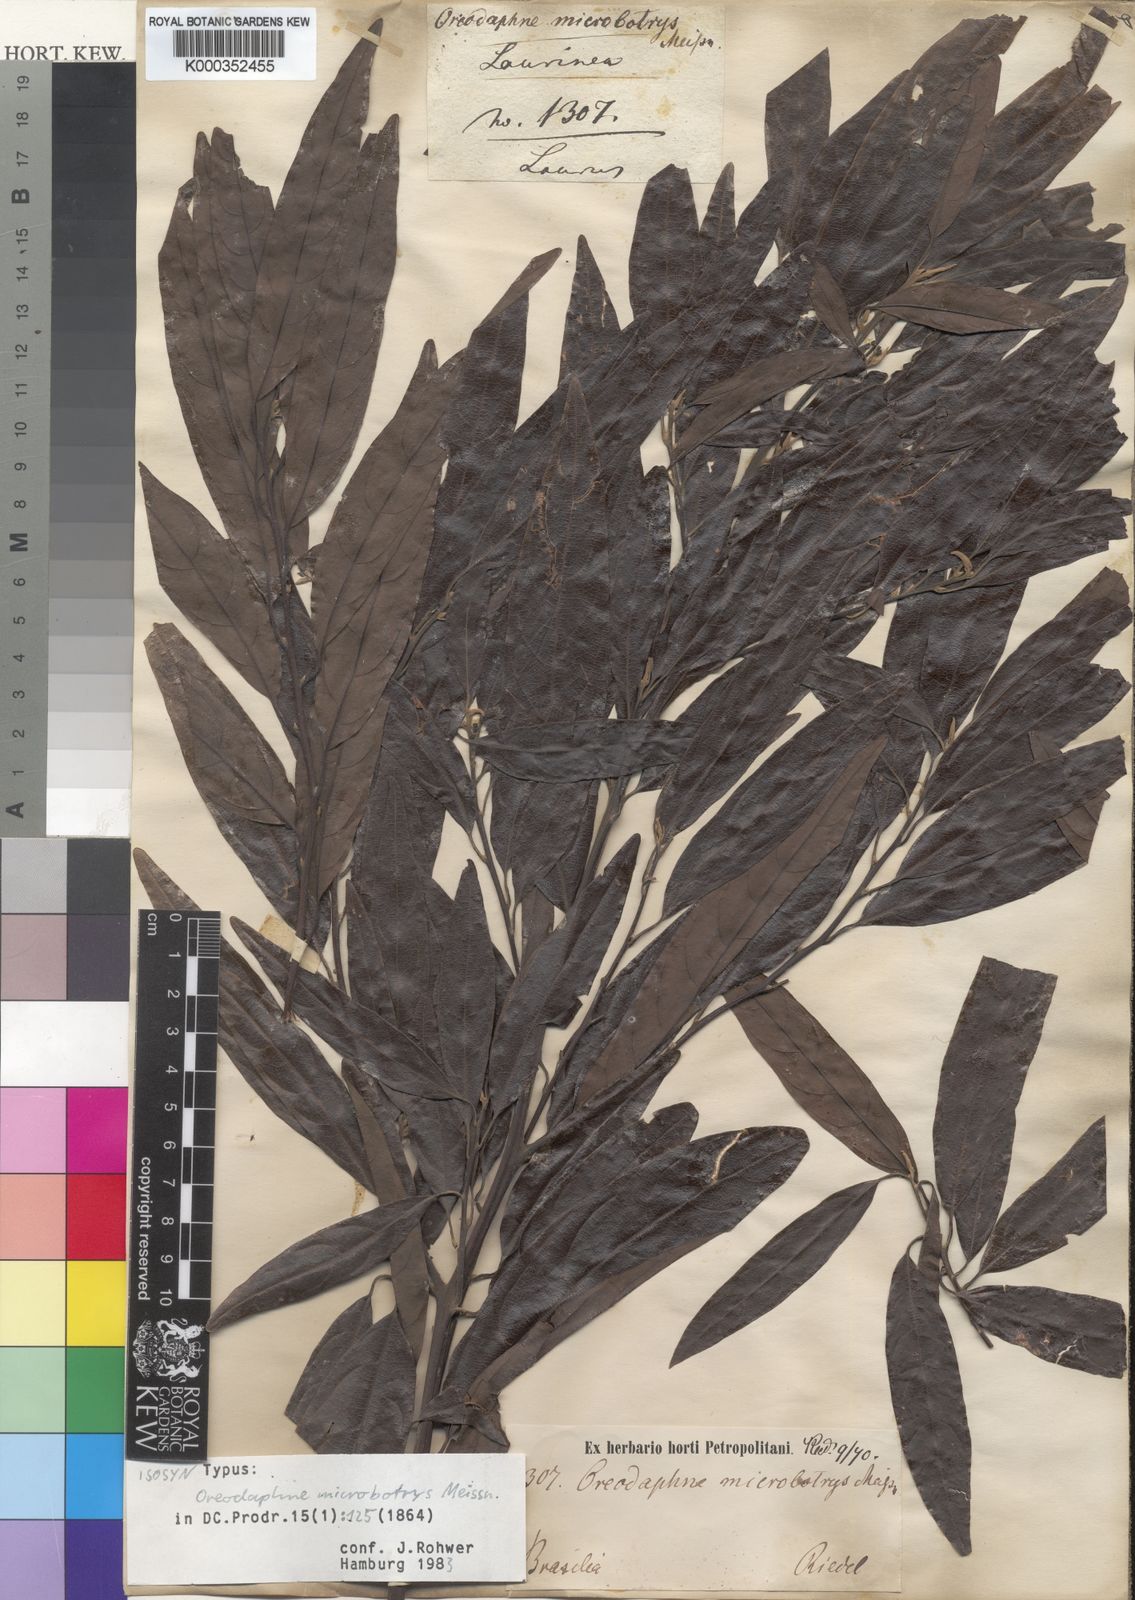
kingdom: Plantae
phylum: Tracheophyta
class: Magnoliopsida
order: Laurales
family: Lauraceae
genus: Ocotea
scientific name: Ocotea microbotrys
